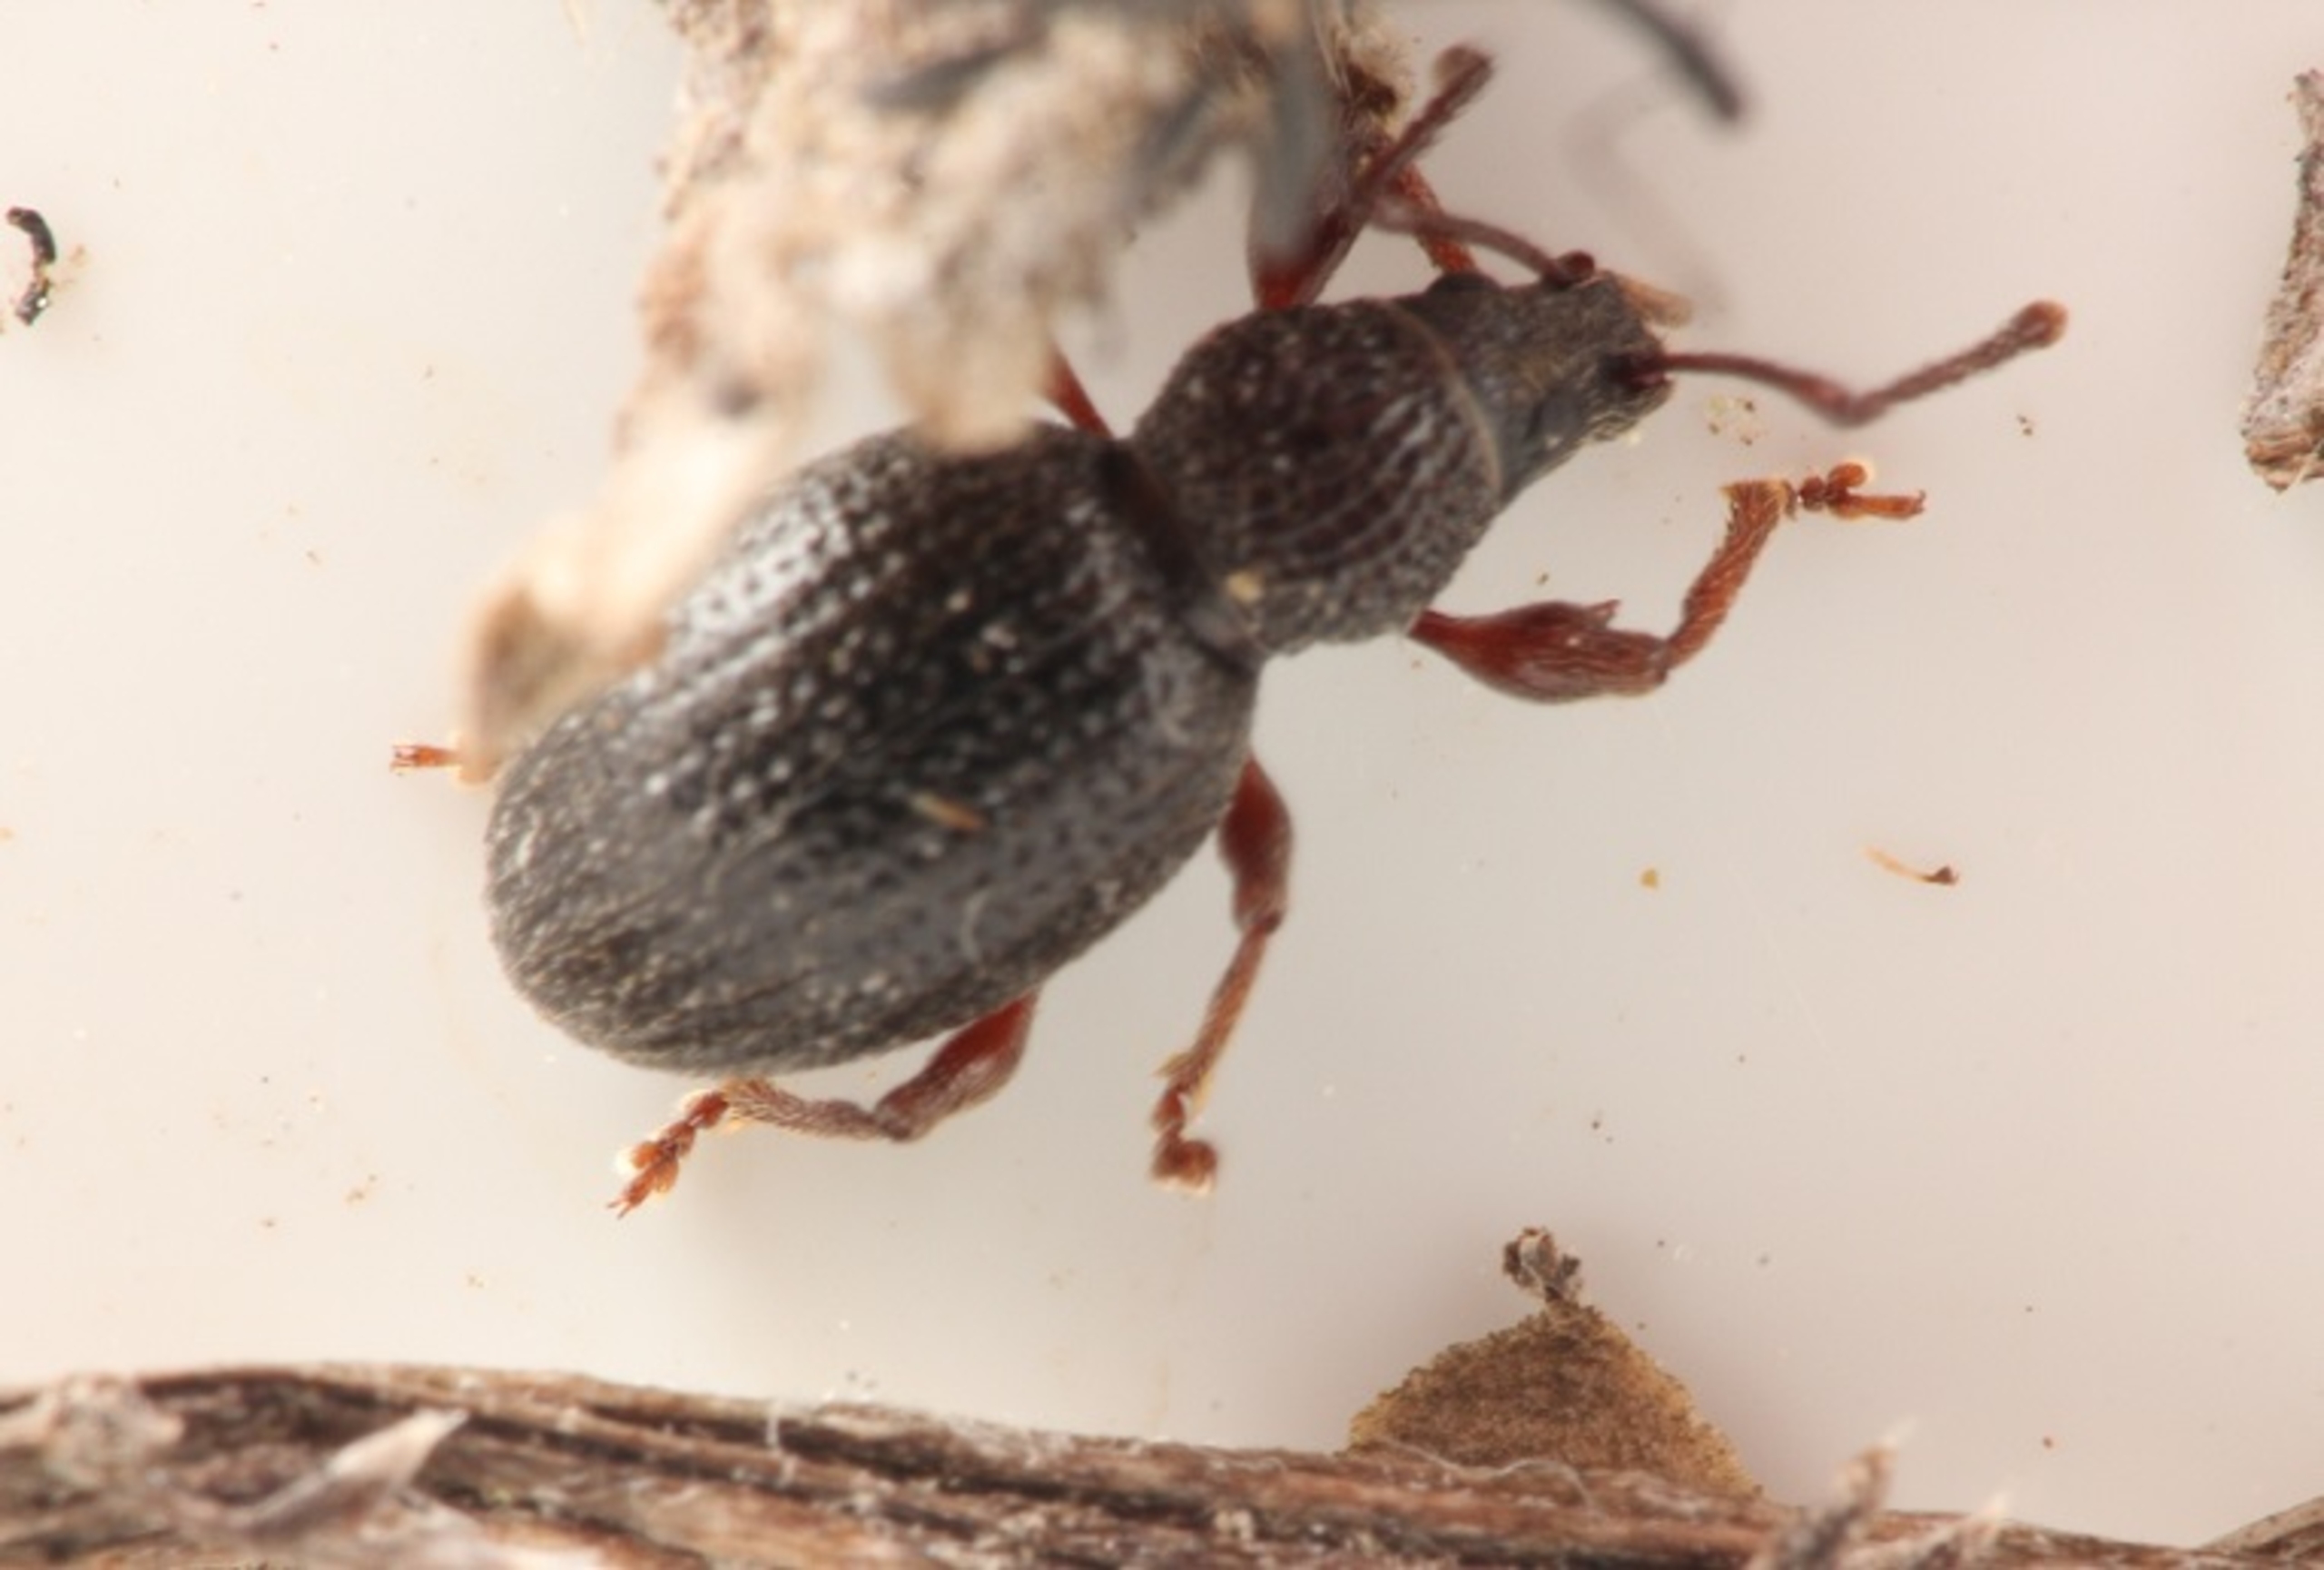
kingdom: Animalia
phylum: Arthropoda
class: Insecta
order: Coleoptera
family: Curculionidae
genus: Otiorhynchus
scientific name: Otiorhynchus ovatus
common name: Jordbærøresnudebille
